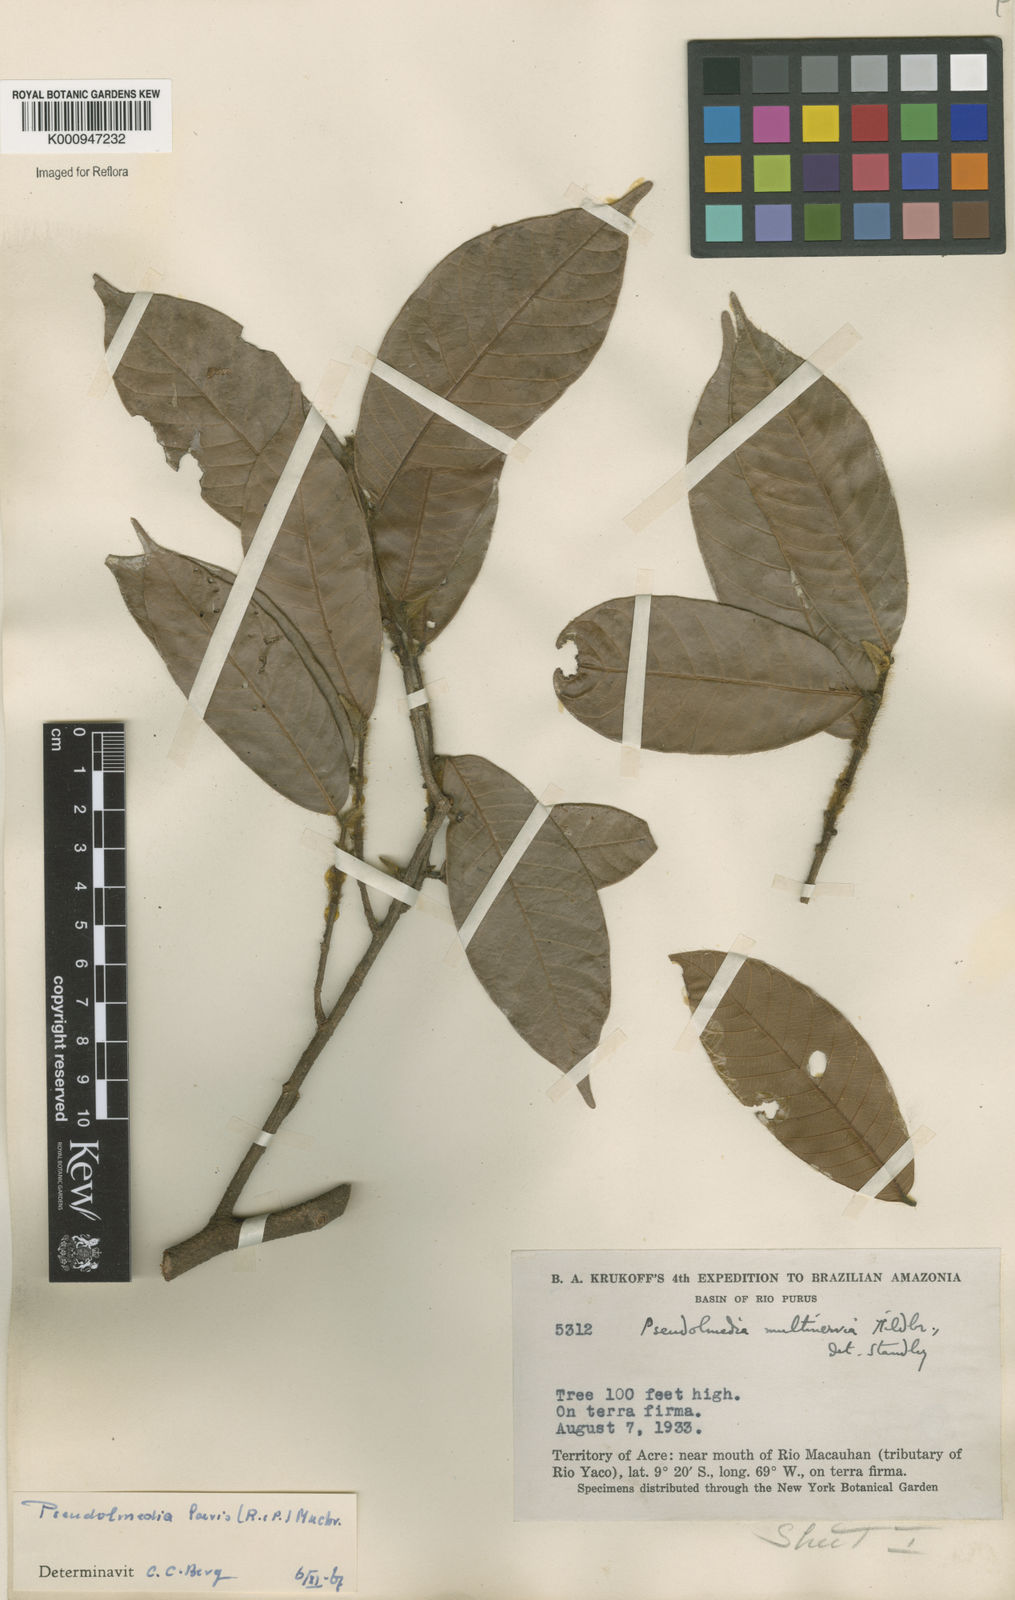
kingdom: Plantae
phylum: Tracheophyta
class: Magnoliopsida
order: Rosales
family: Moraceae
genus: Pseudolmedia
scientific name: Pseudolmedia laevis
